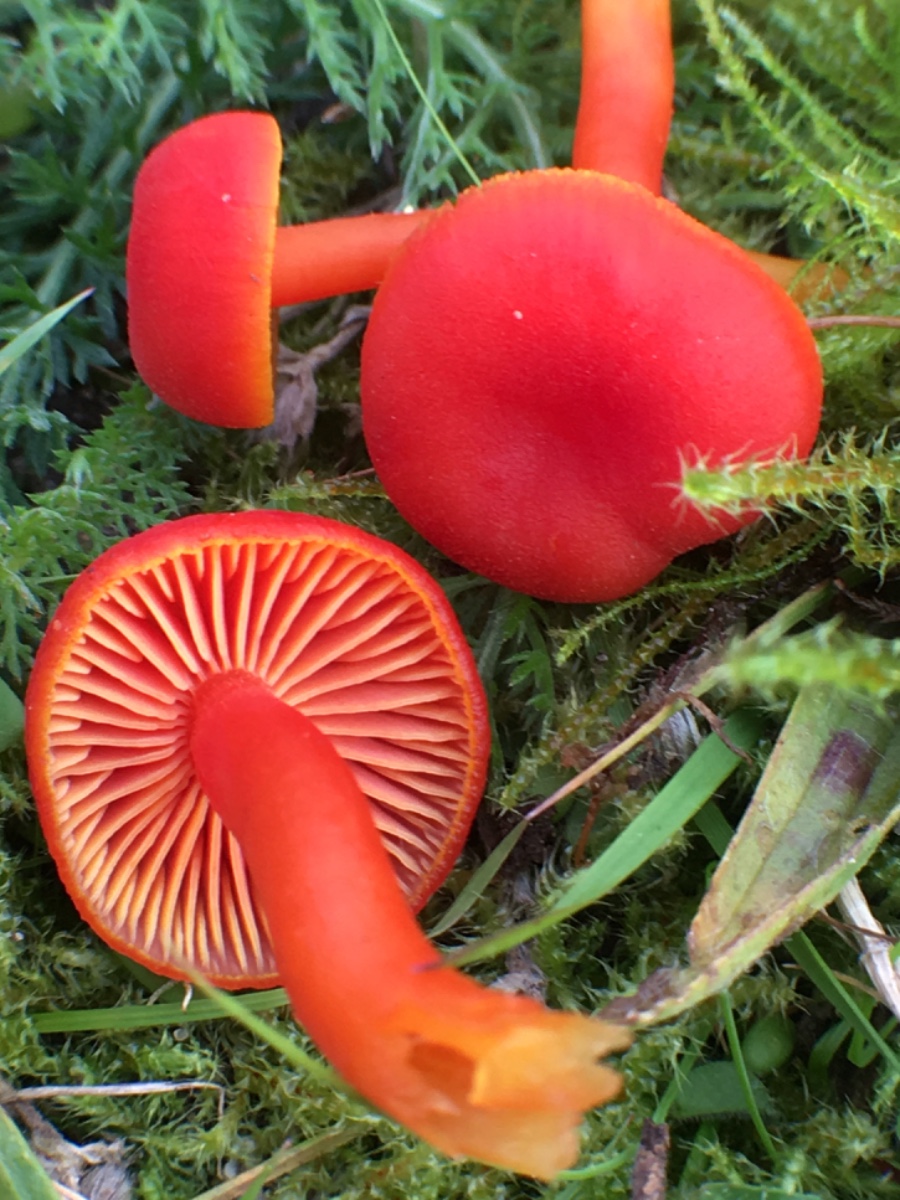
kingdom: Fungi
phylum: Basidiomycota
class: Agaricomycetes
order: Agaricales
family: Hygrophoraceae
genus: Hygrocybe
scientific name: Hygrocybe miniata
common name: mønje-vokshat
